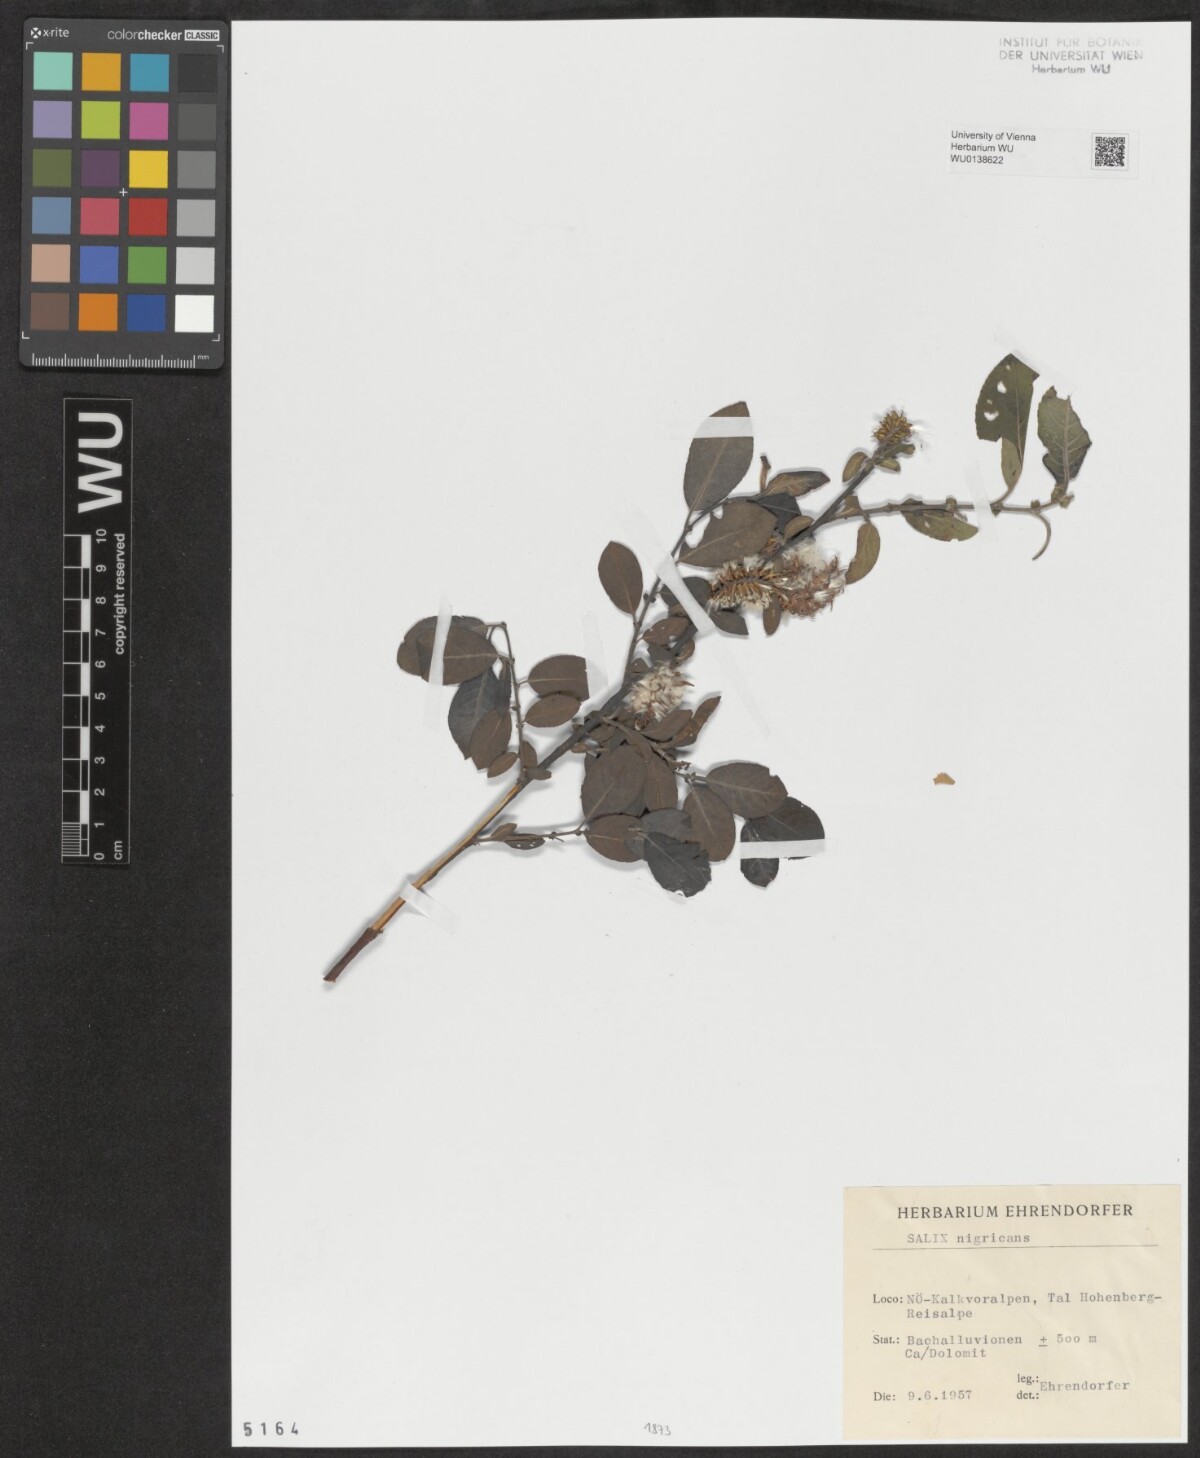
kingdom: Plantae
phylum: Tracheophyta
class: Magnoliopsida
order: Malpighiales
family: Salicaceae
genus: Salix
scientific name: Salix myrsinifolia
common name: Dark-leaved willow
